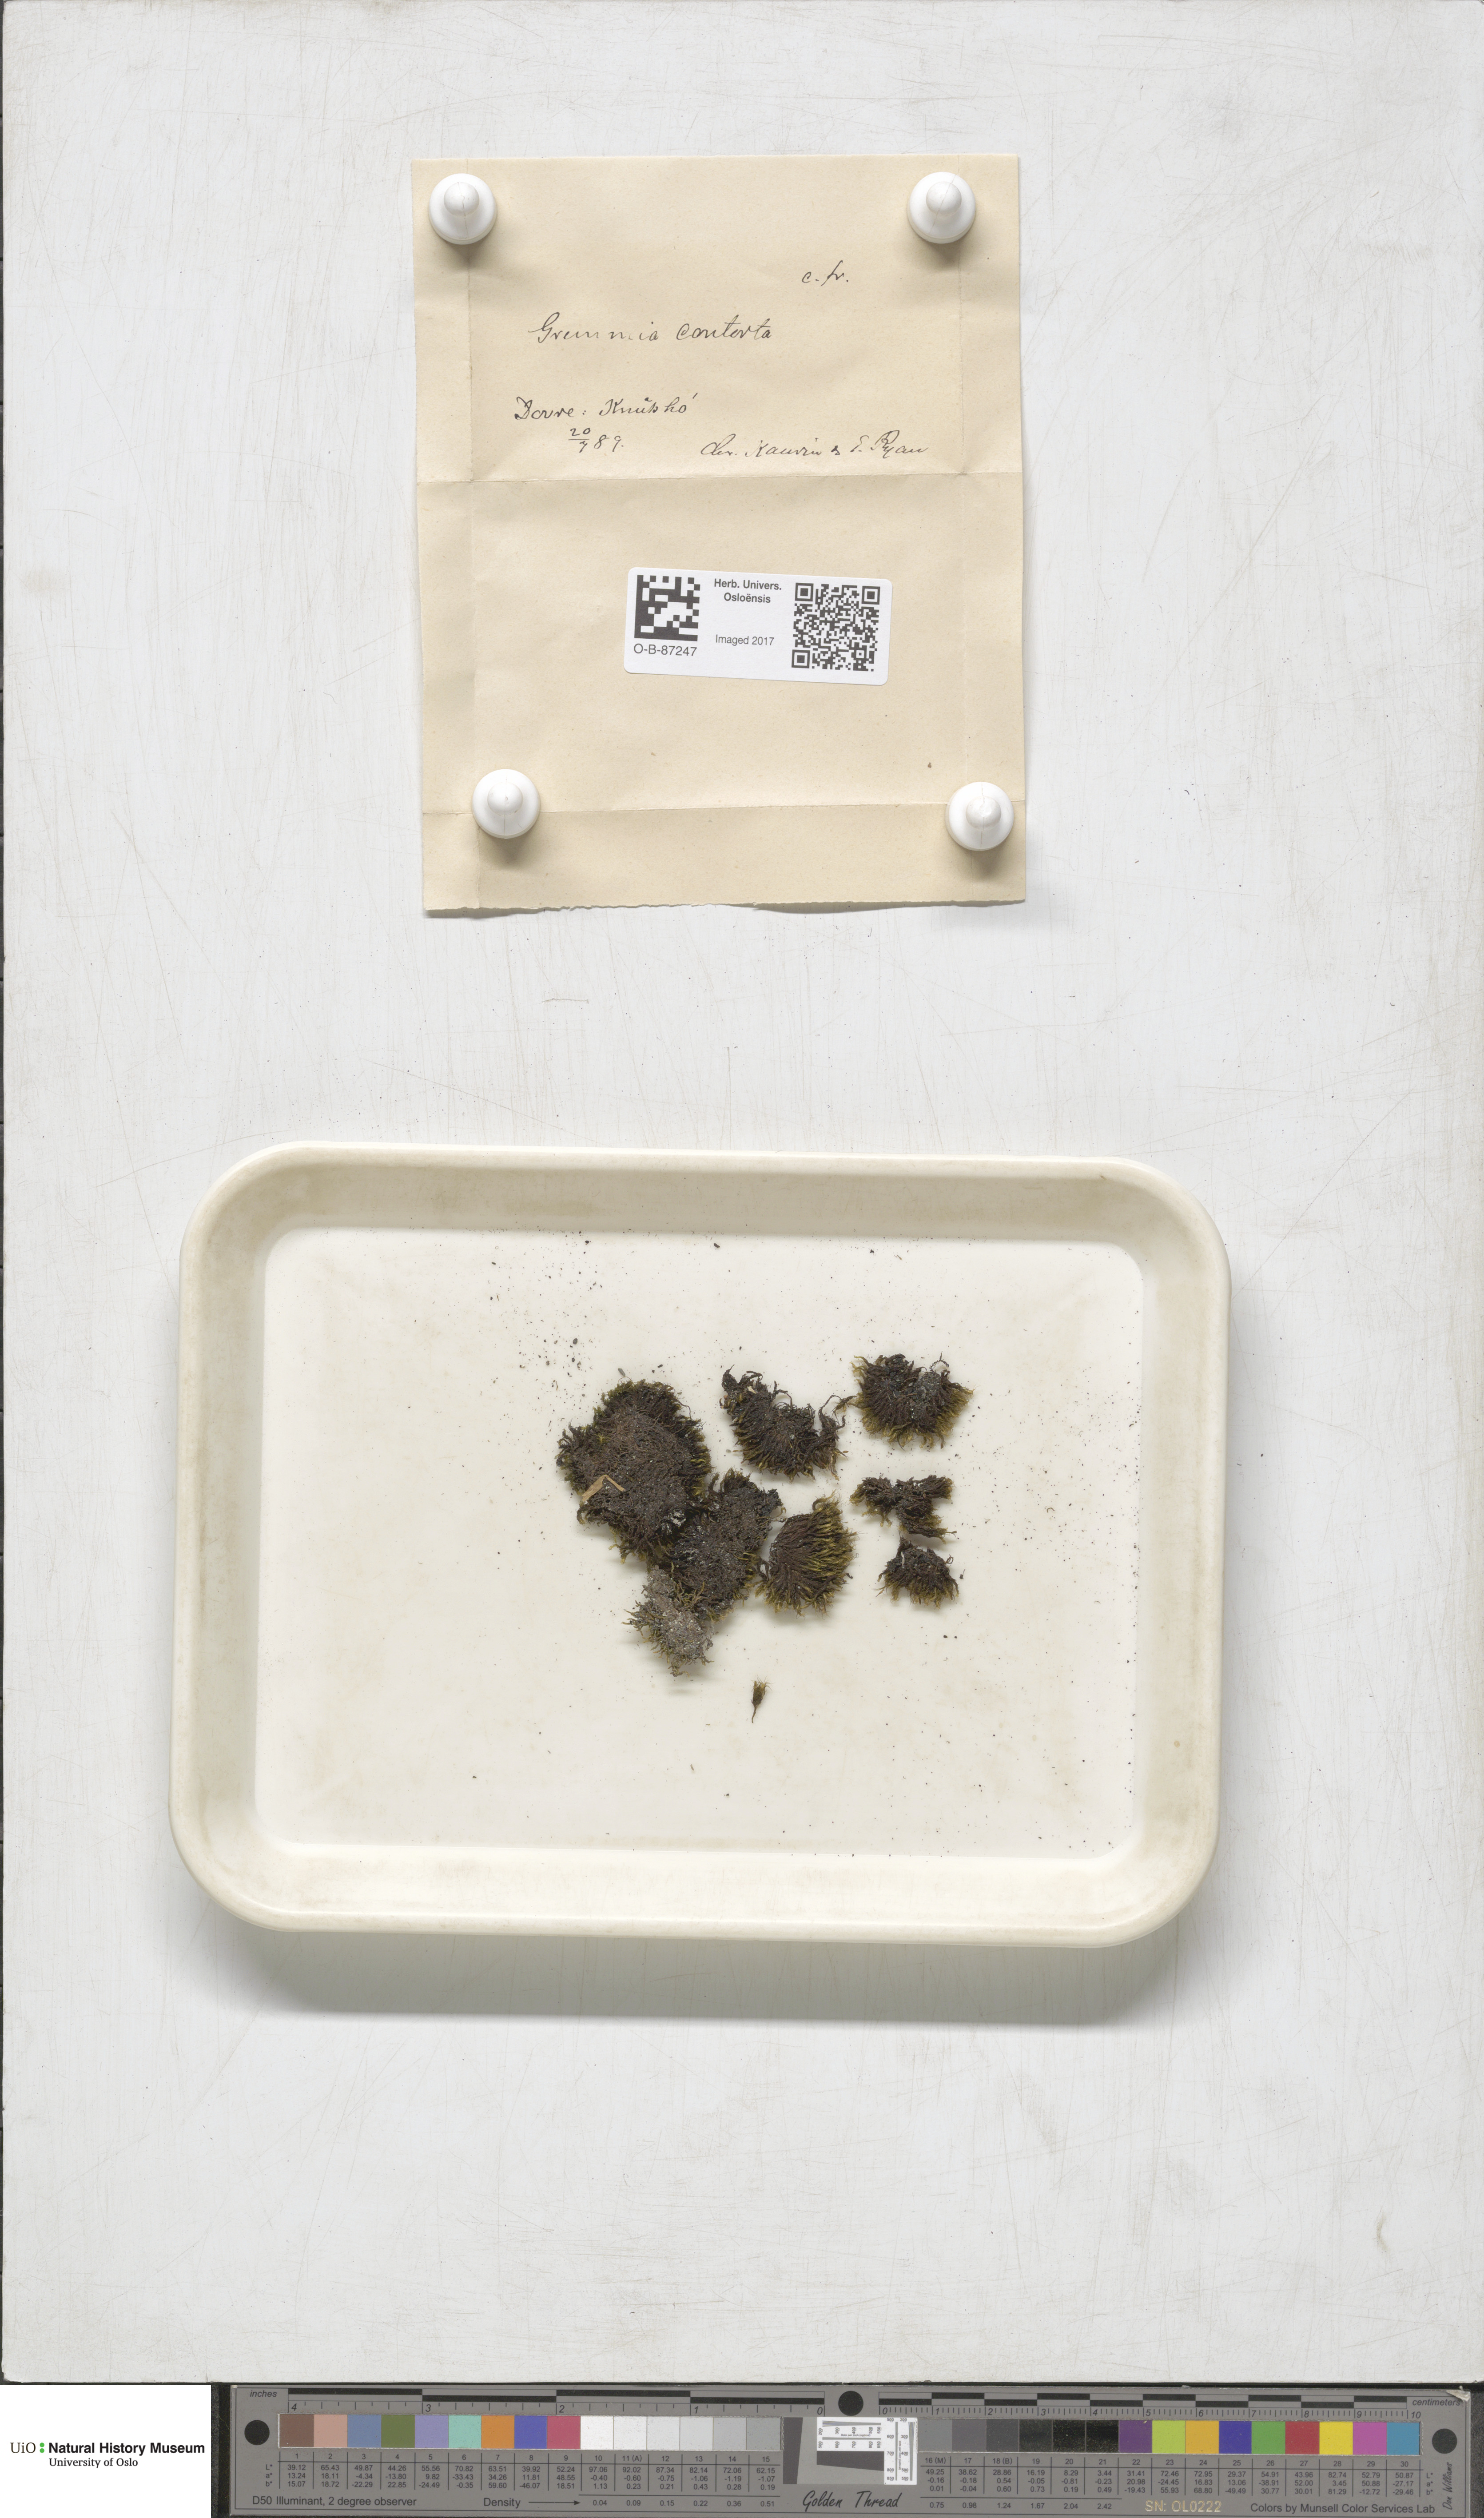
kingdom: Plantae
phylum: Bryophyta
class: Bryopsida
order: Grimmiales
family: Grimmiaceae
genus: Grimmia
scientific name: Grimmia incurva
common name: Black grimmia
